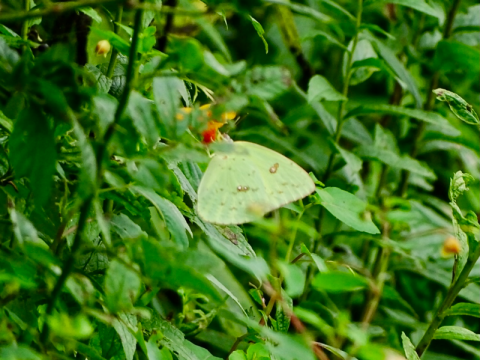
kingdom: Animalia
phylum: Arthropoda
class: Insecta
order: Lepidoptera
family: Pieridae
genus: Phoebis
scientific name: Phoebis sennae
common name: Cloudless Sulphur
